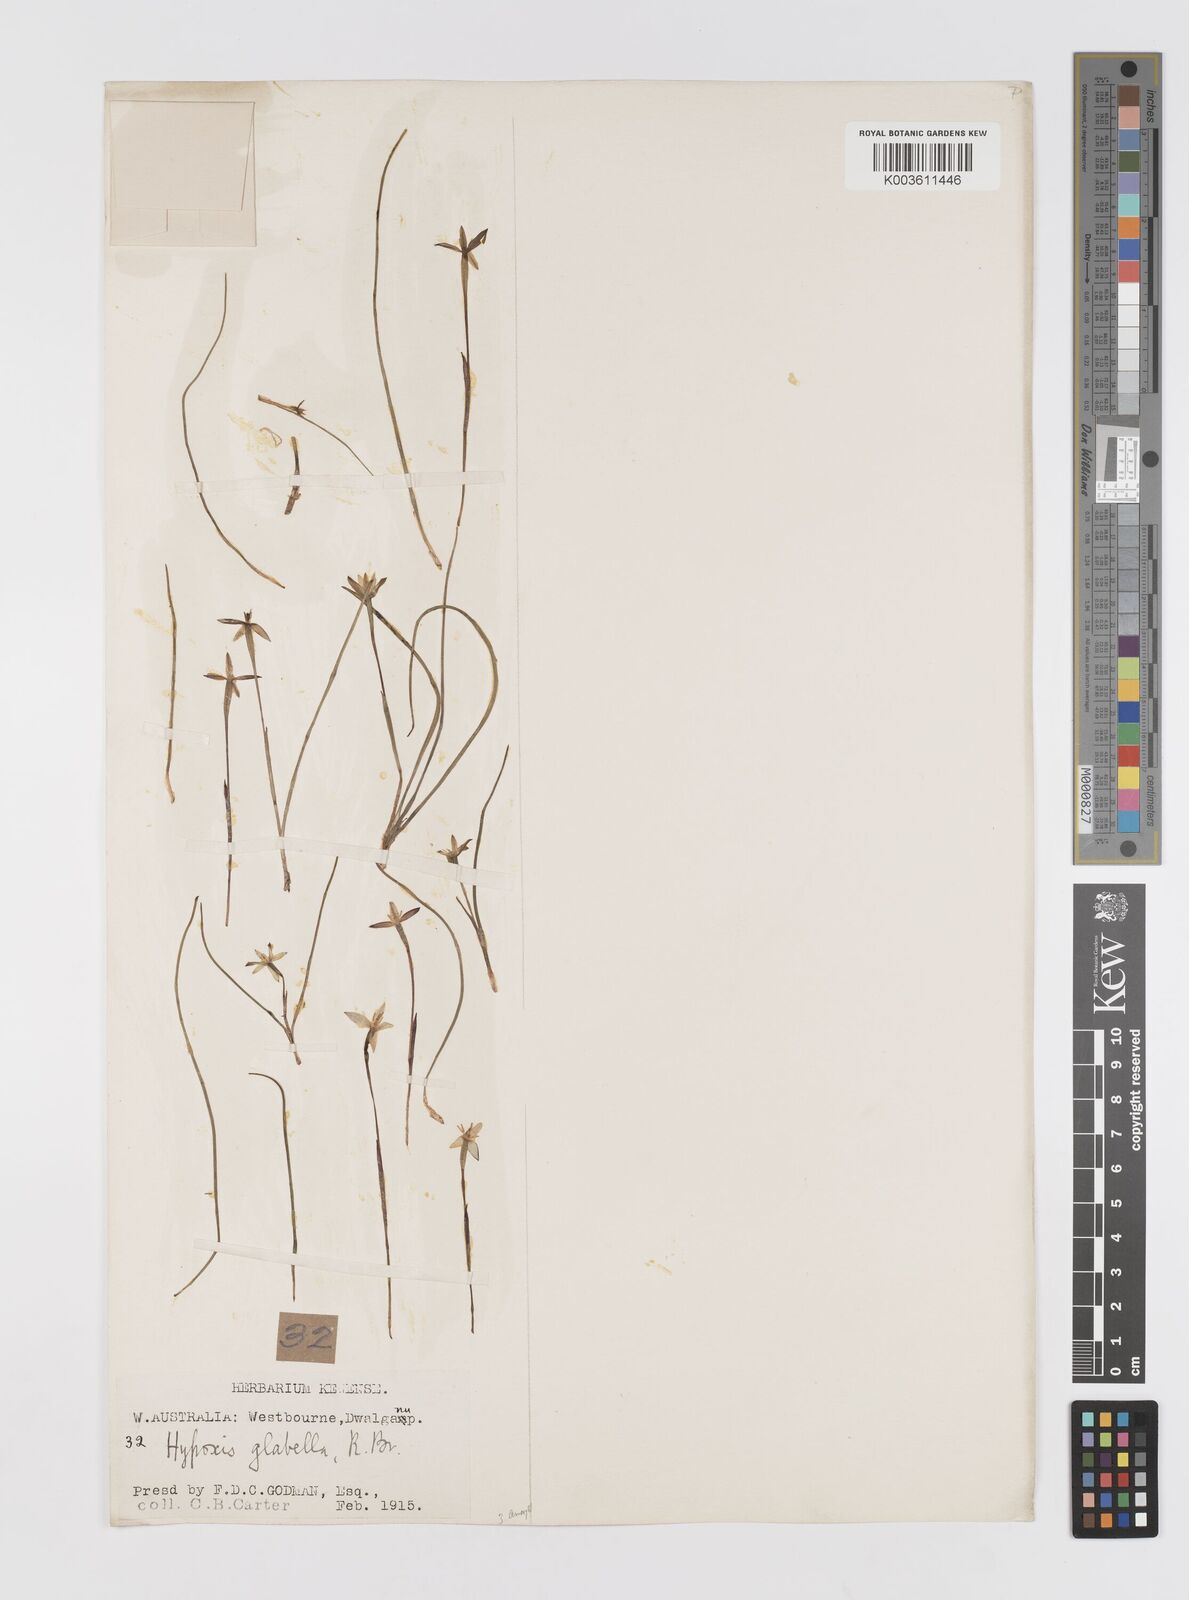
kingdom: Plantae
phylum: Tracheophyta
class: Liliopsida
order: Asparagales
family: Hypoxidaceae
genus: Pauridia
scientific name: Pauridia glabella
